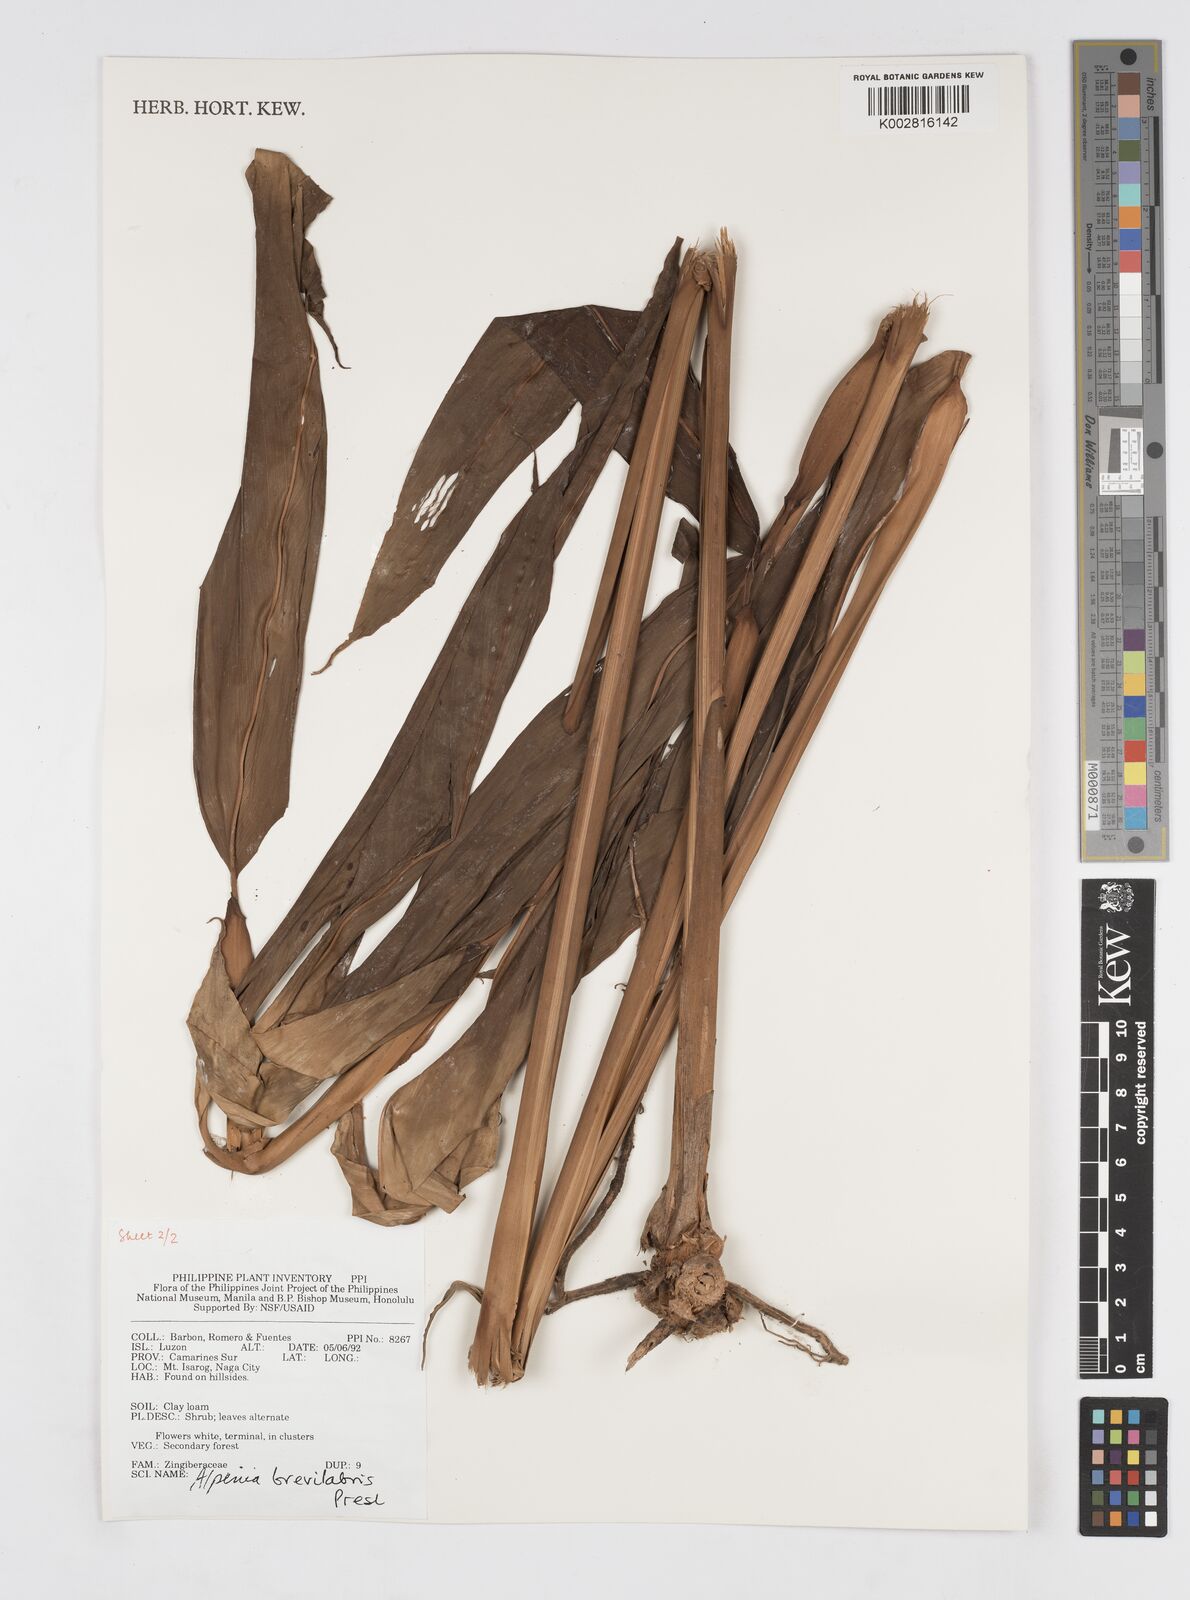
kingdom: Plantae
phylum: Tracheophyta
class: Liliopsida
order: Zingiberales
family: Zingiberaceae
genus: Alpinia
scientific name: Alpinia brevilabris
